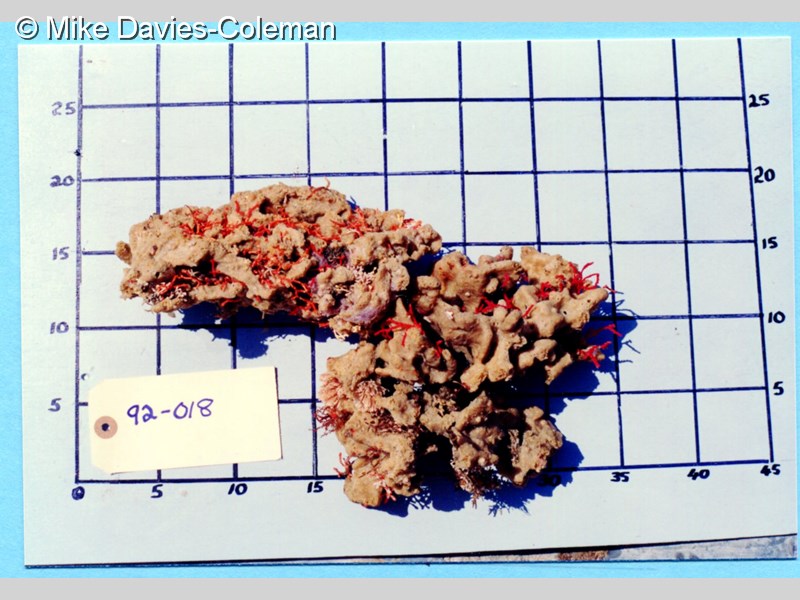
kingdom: Animalia
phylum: Porifera
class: Demospongiae
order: Haplosclerida
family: Chalinidae
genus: Chalinula
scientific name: Chalinula
